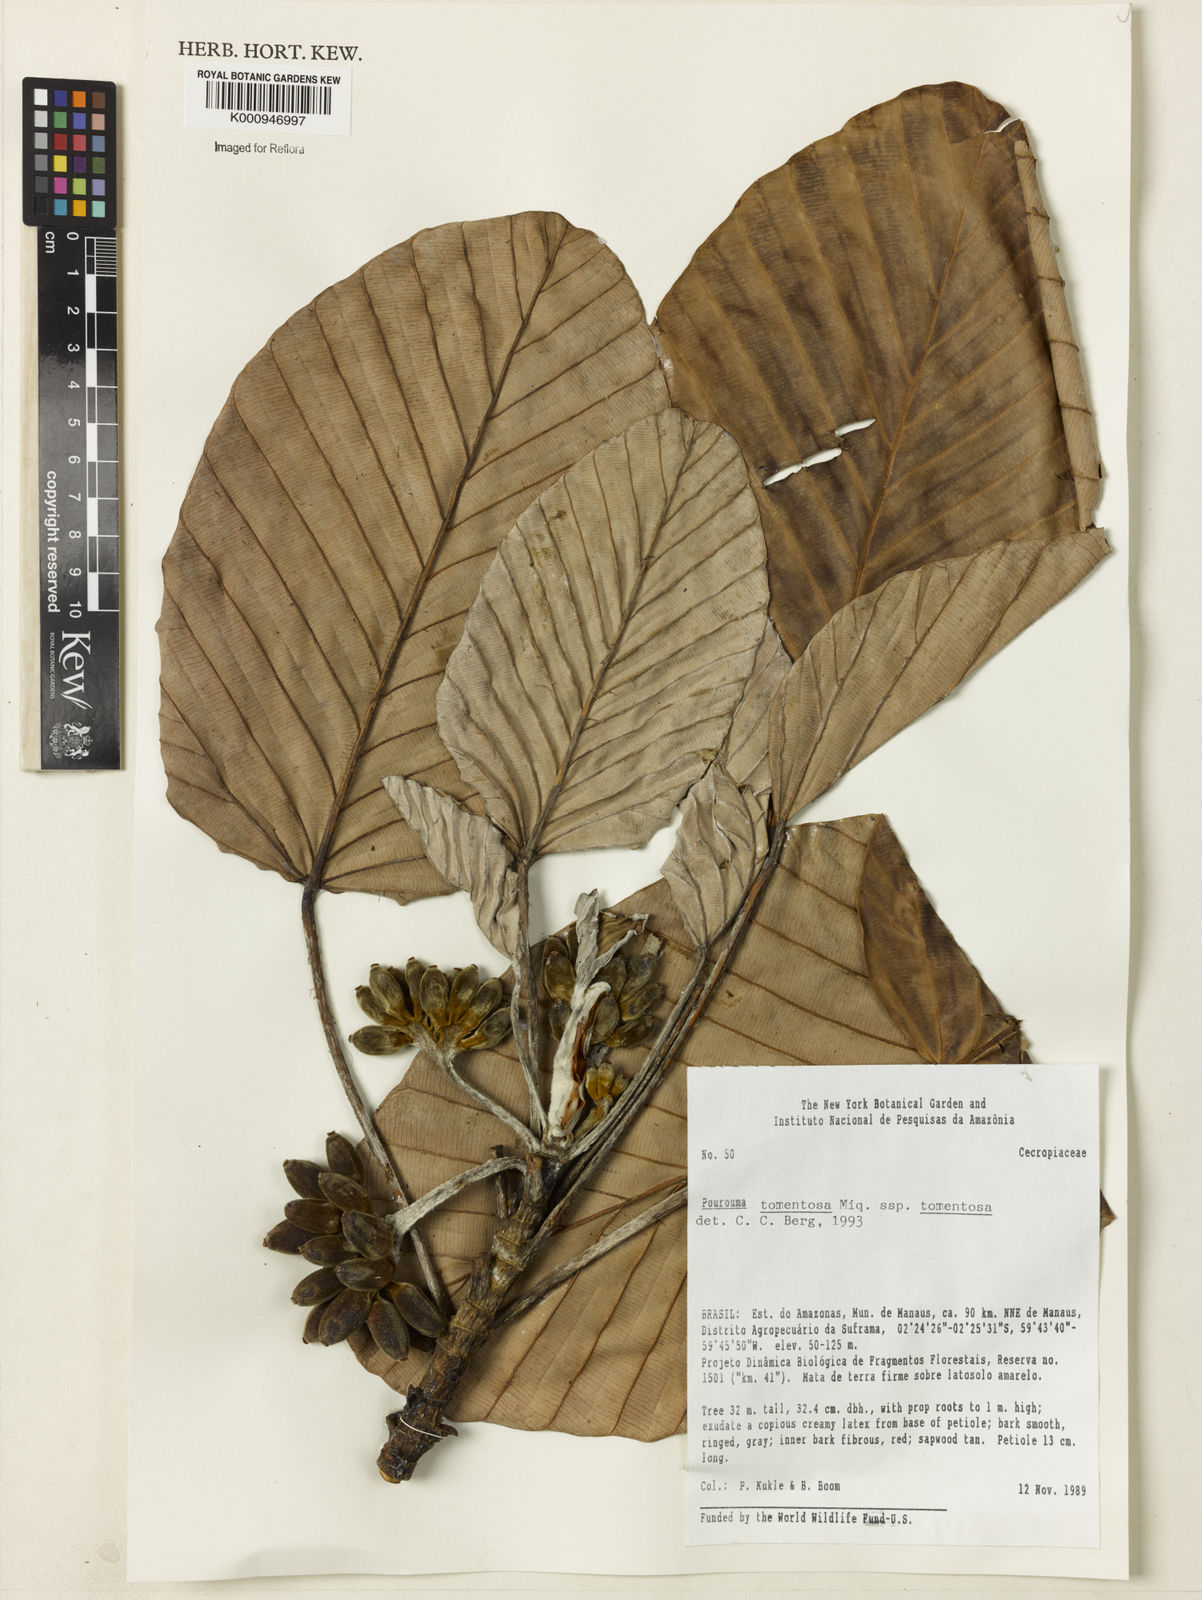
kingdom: Plantae
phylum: Tracheophyta
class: Magnoliopsida
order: Rosales
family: Urticaceae
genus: Pourouma
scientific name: Pourouma tomentosa
